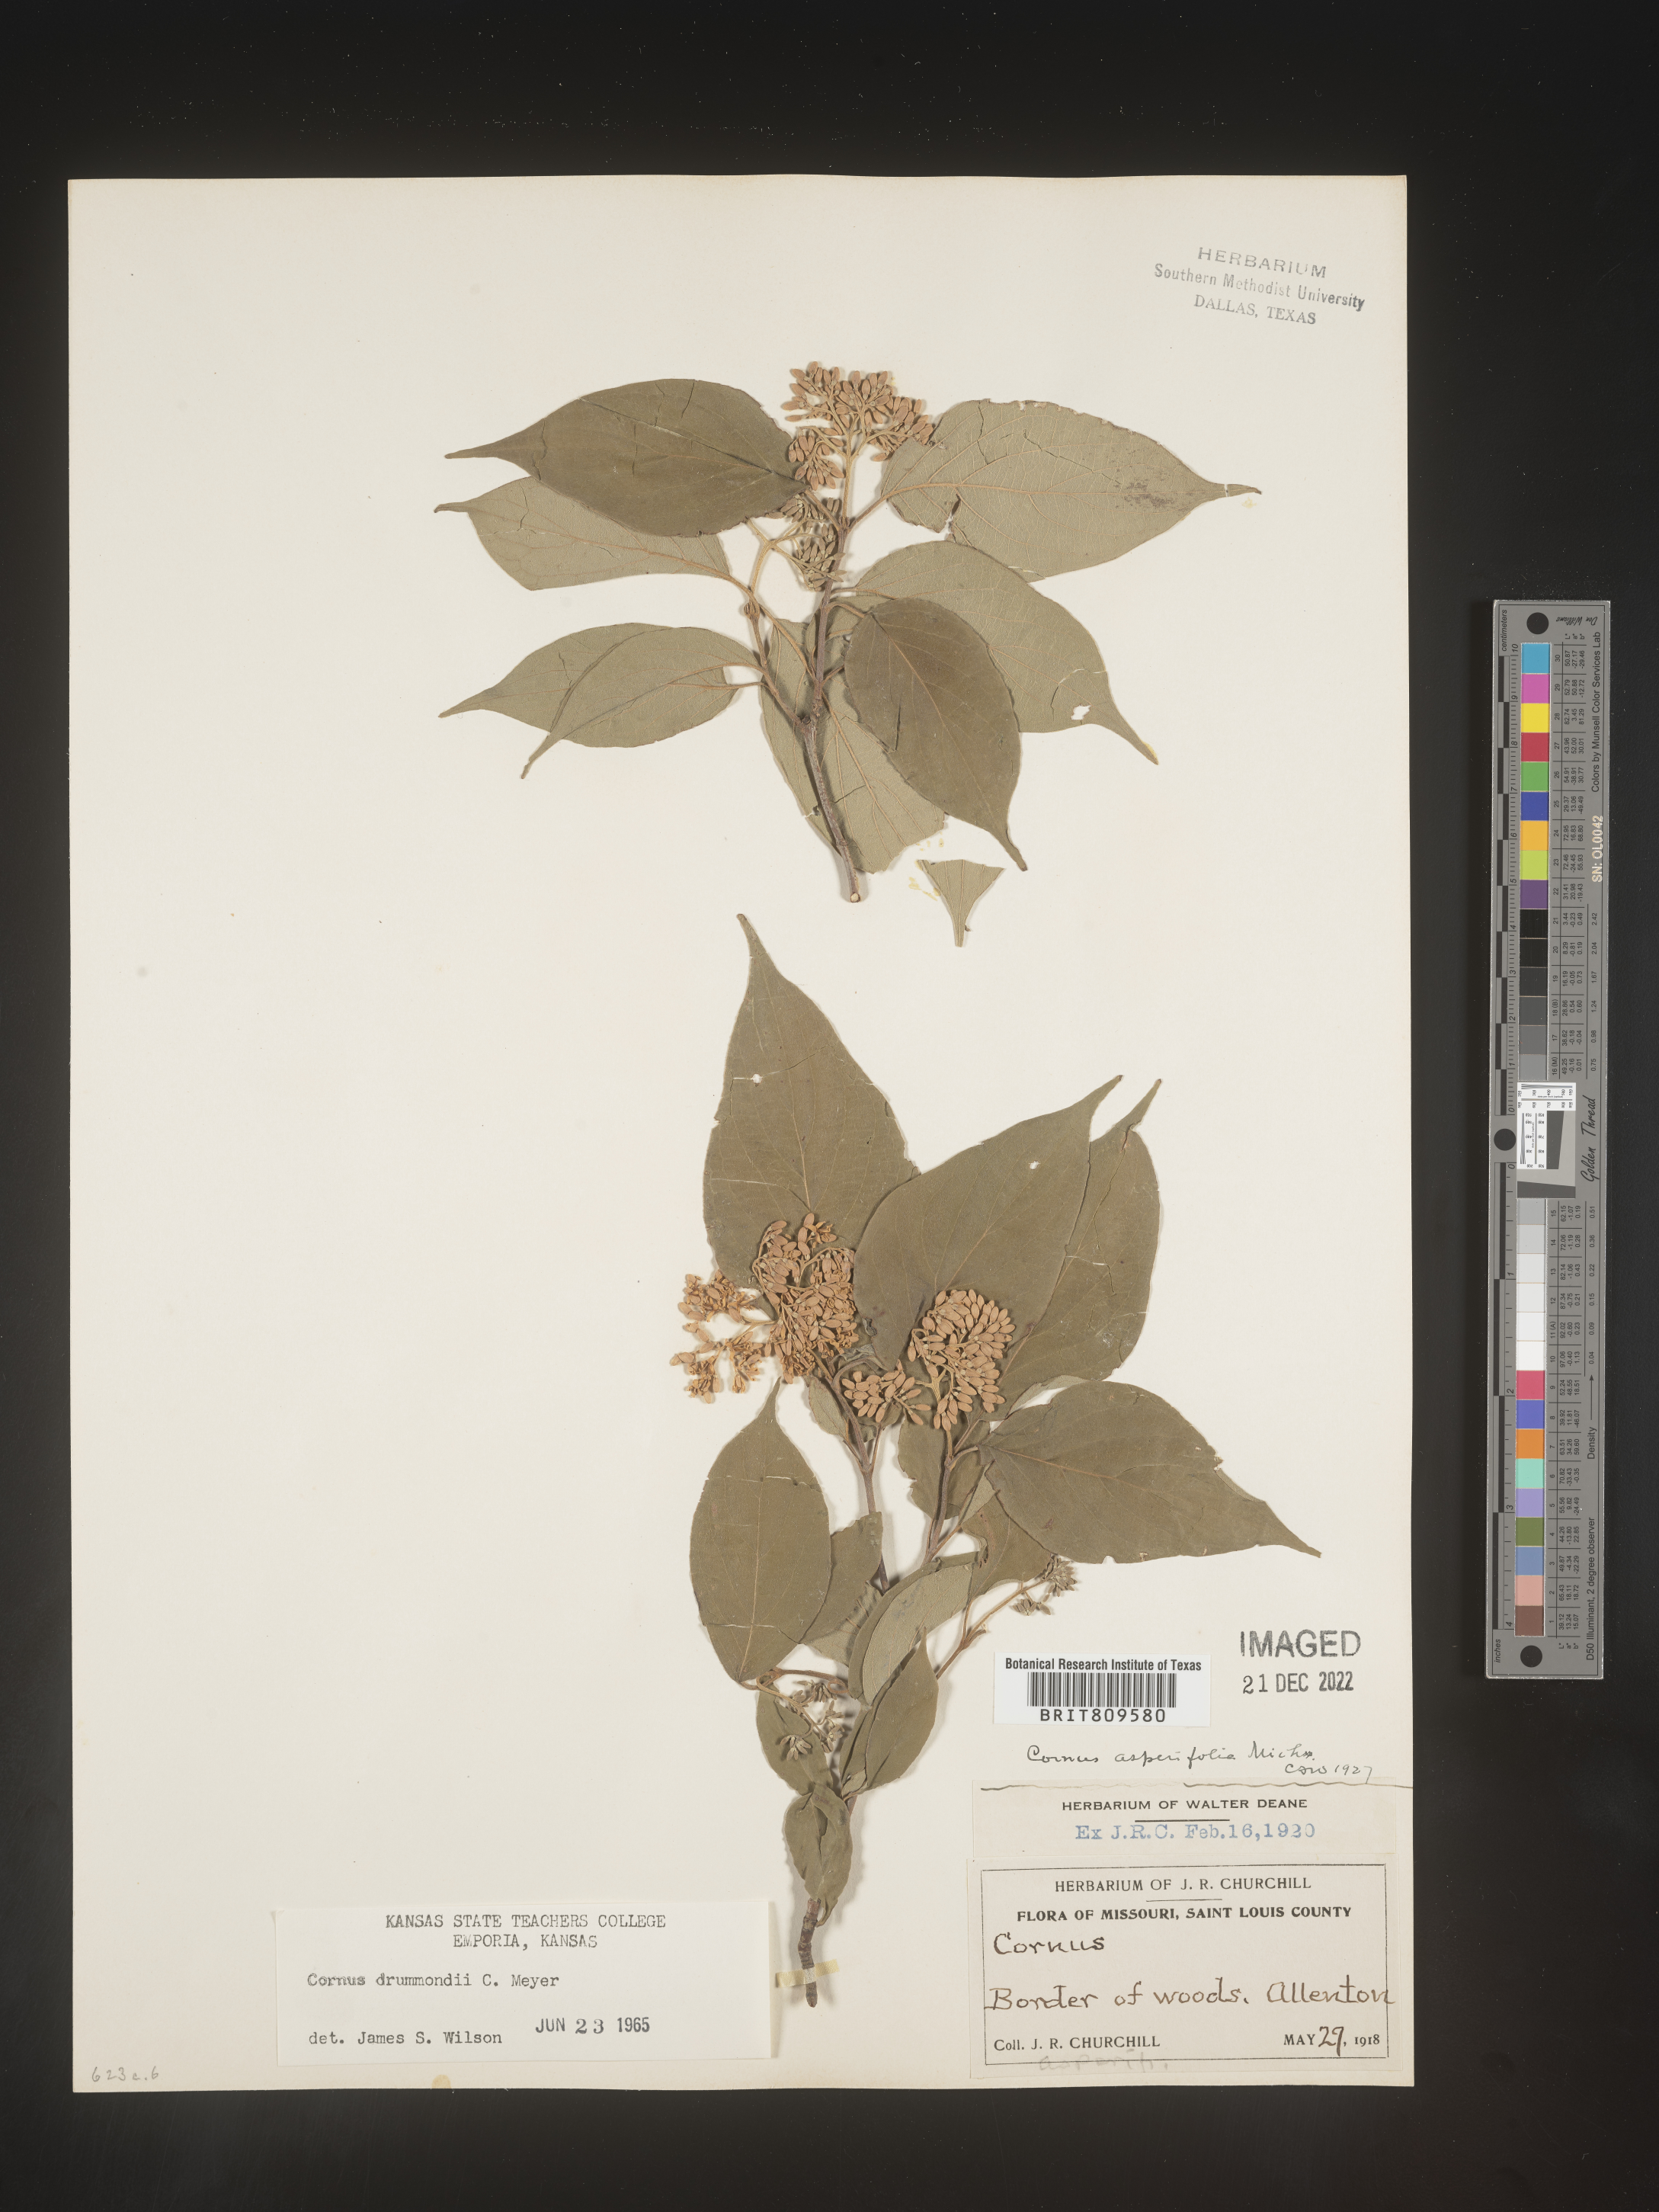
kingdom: Plantae
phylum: Tracheophyta
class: Magnoliopsida
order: Cornales
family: Cornaceae
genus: Cornus
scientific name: Cornus drummondii
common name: Rough-leaf dogwood
